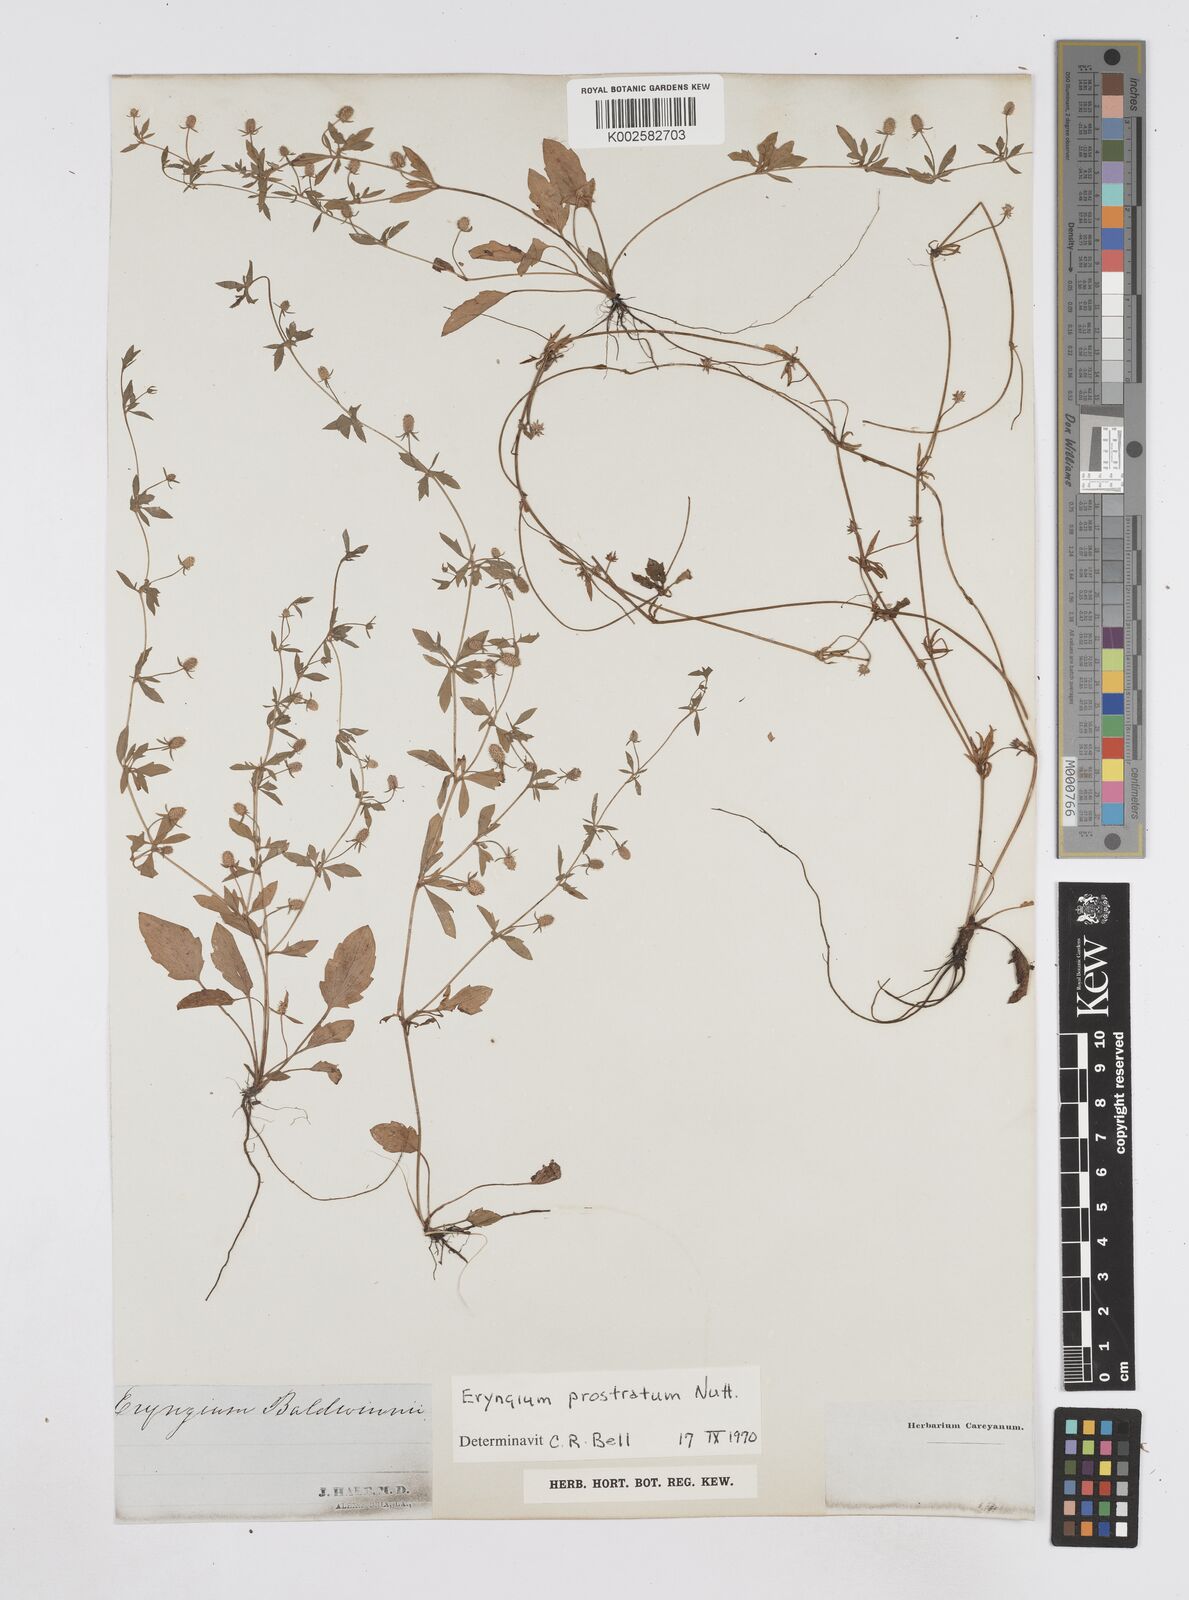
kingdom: Plantae
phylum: Tracheophyta
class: Magnoliopsida
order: Apiales
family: Apiaceae
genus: Eryngium
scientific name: Eryngium prostratum
